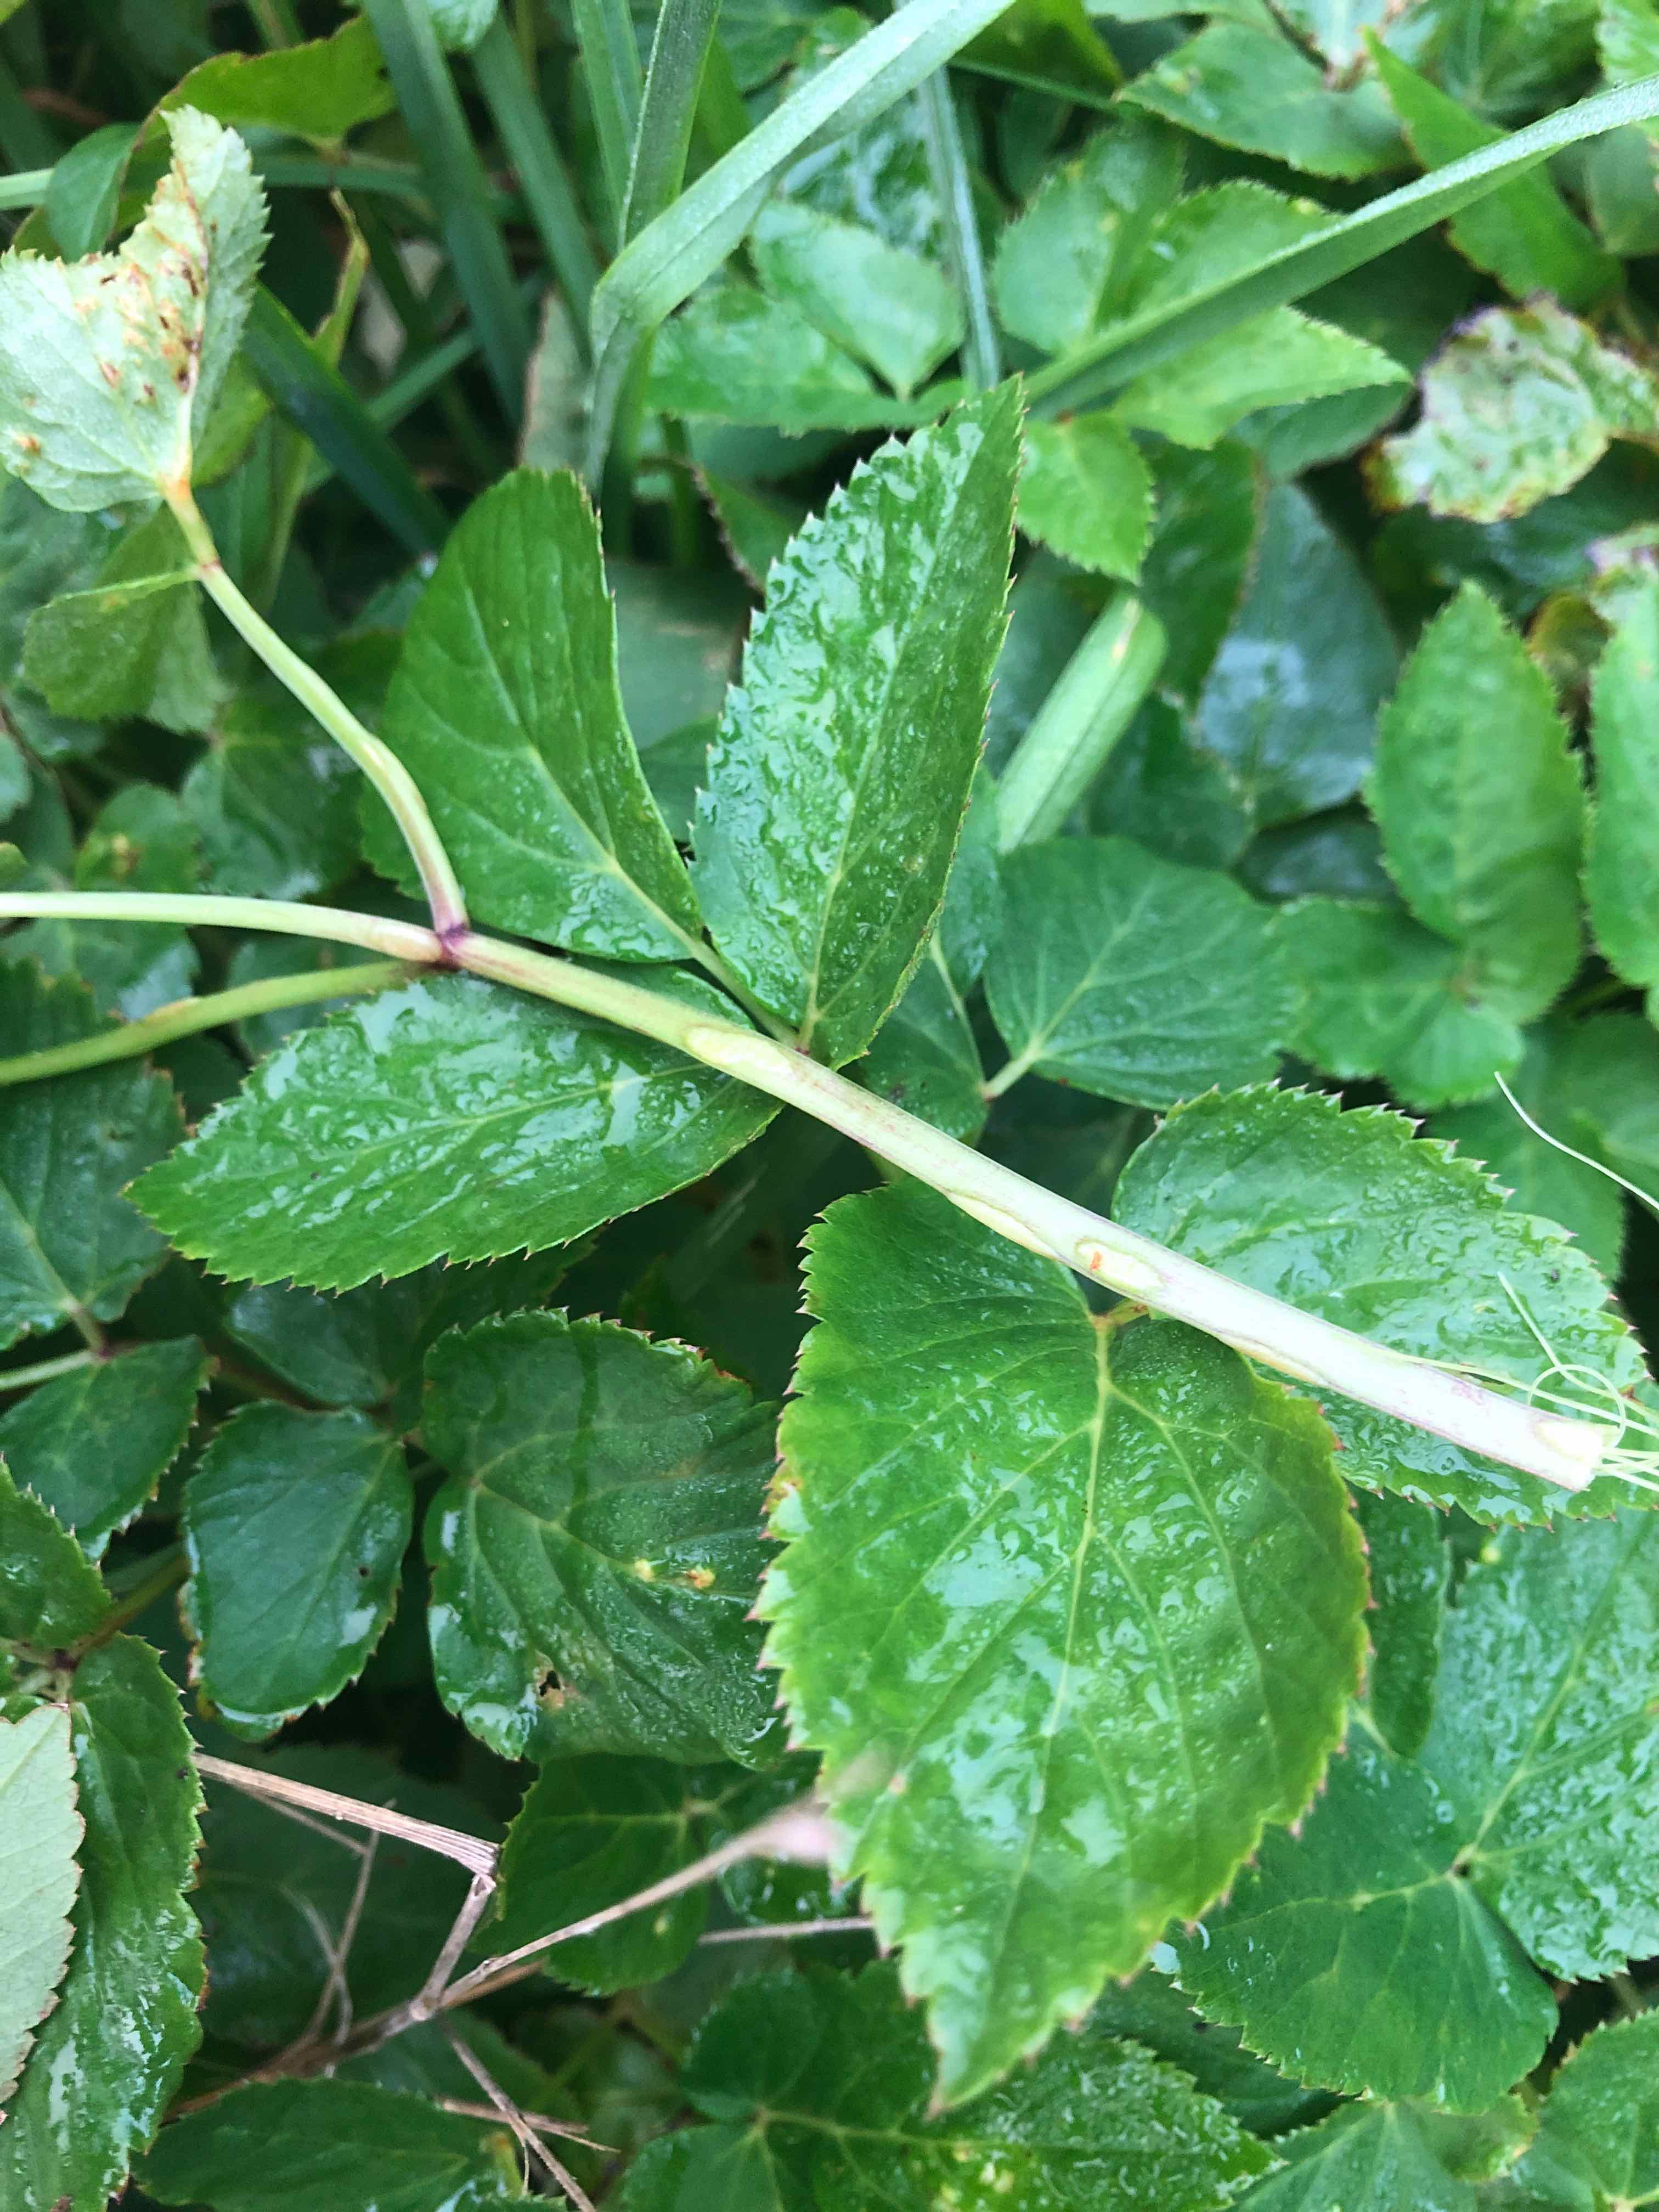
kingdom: Fungi
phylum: Ascomycota
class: Taphrinomycetes
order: Taphrinales
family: Taphrinaceae
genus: Protomyces
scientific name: Protomyces macrosporus
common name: skvalderkål-vablesæk
